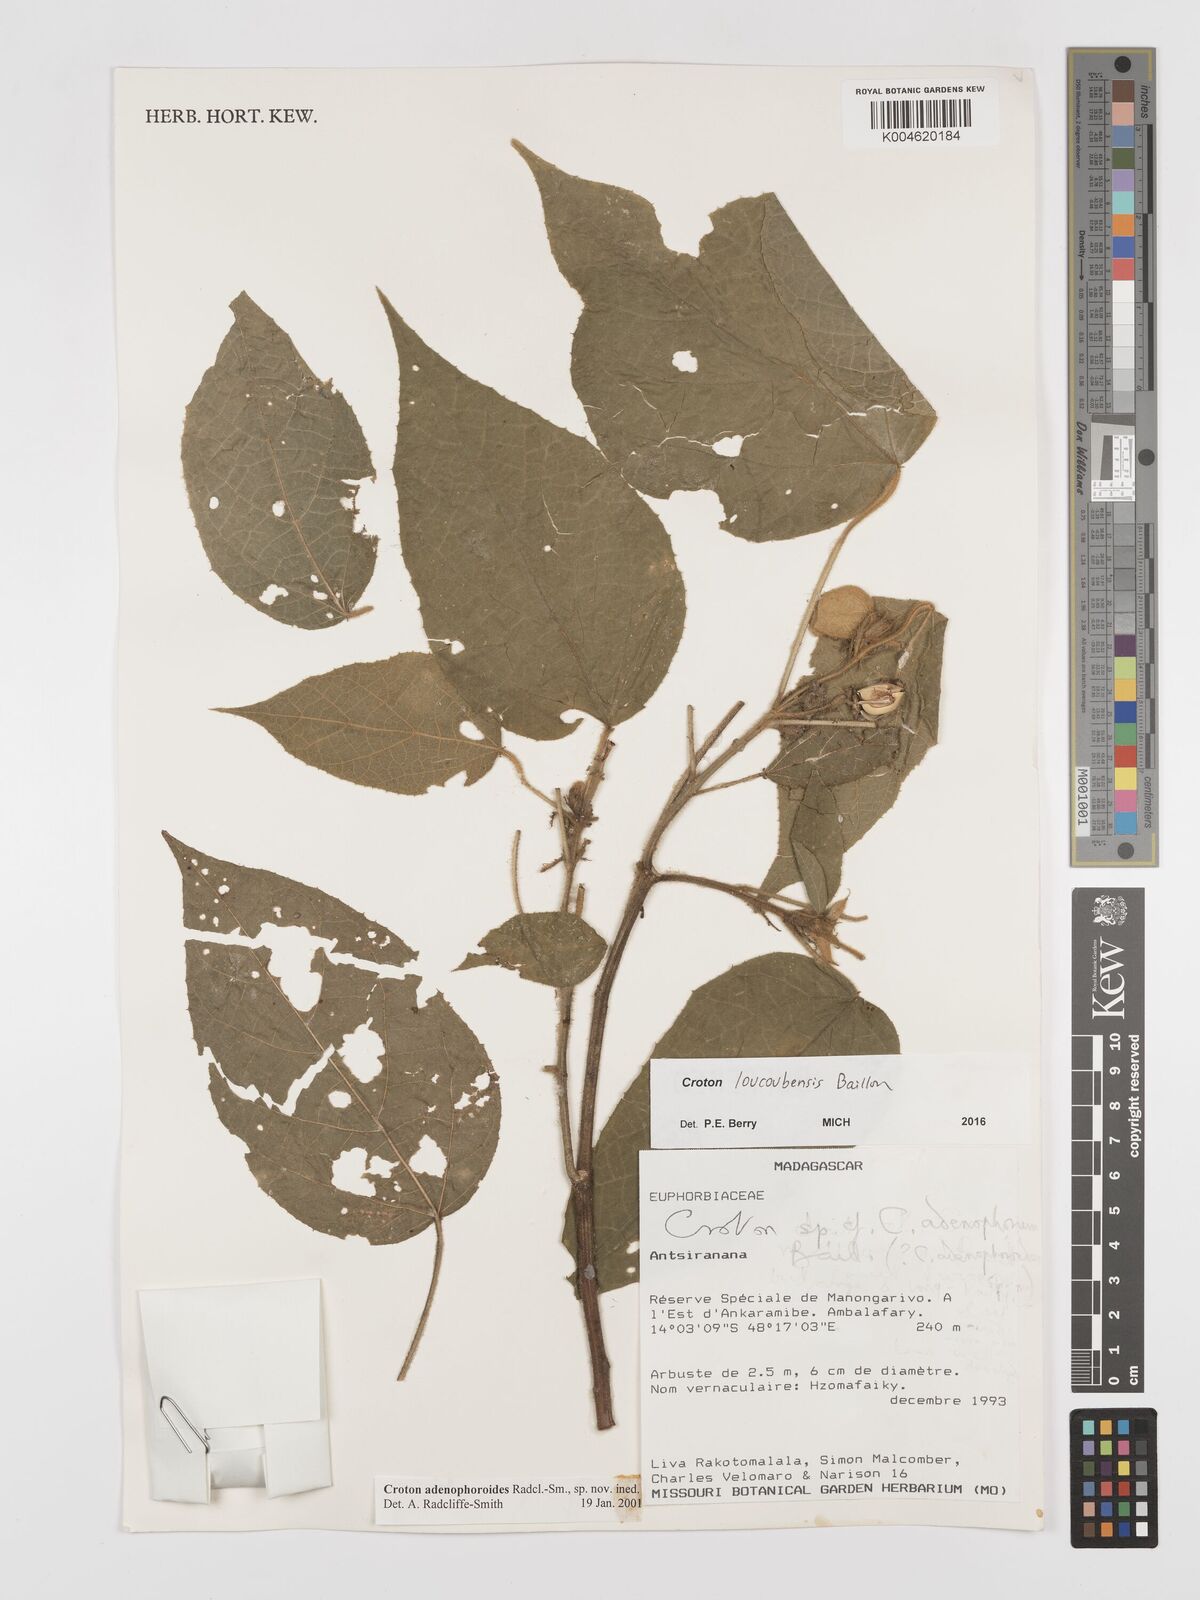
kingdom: Plantae
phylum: Tracheophyta
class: Magnoliopsida
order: Malpighiales
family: Euphorbiaceae
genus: Croton
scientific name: Croton loucoubensis
